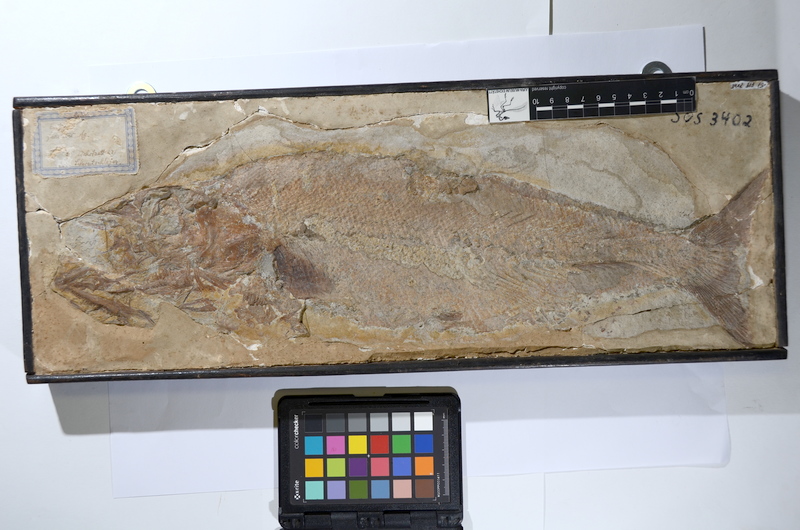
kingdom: Animalia
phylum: Chordata
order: Amiiformes
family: Caturidae
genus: Caturus
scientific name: Caturus furcatus
